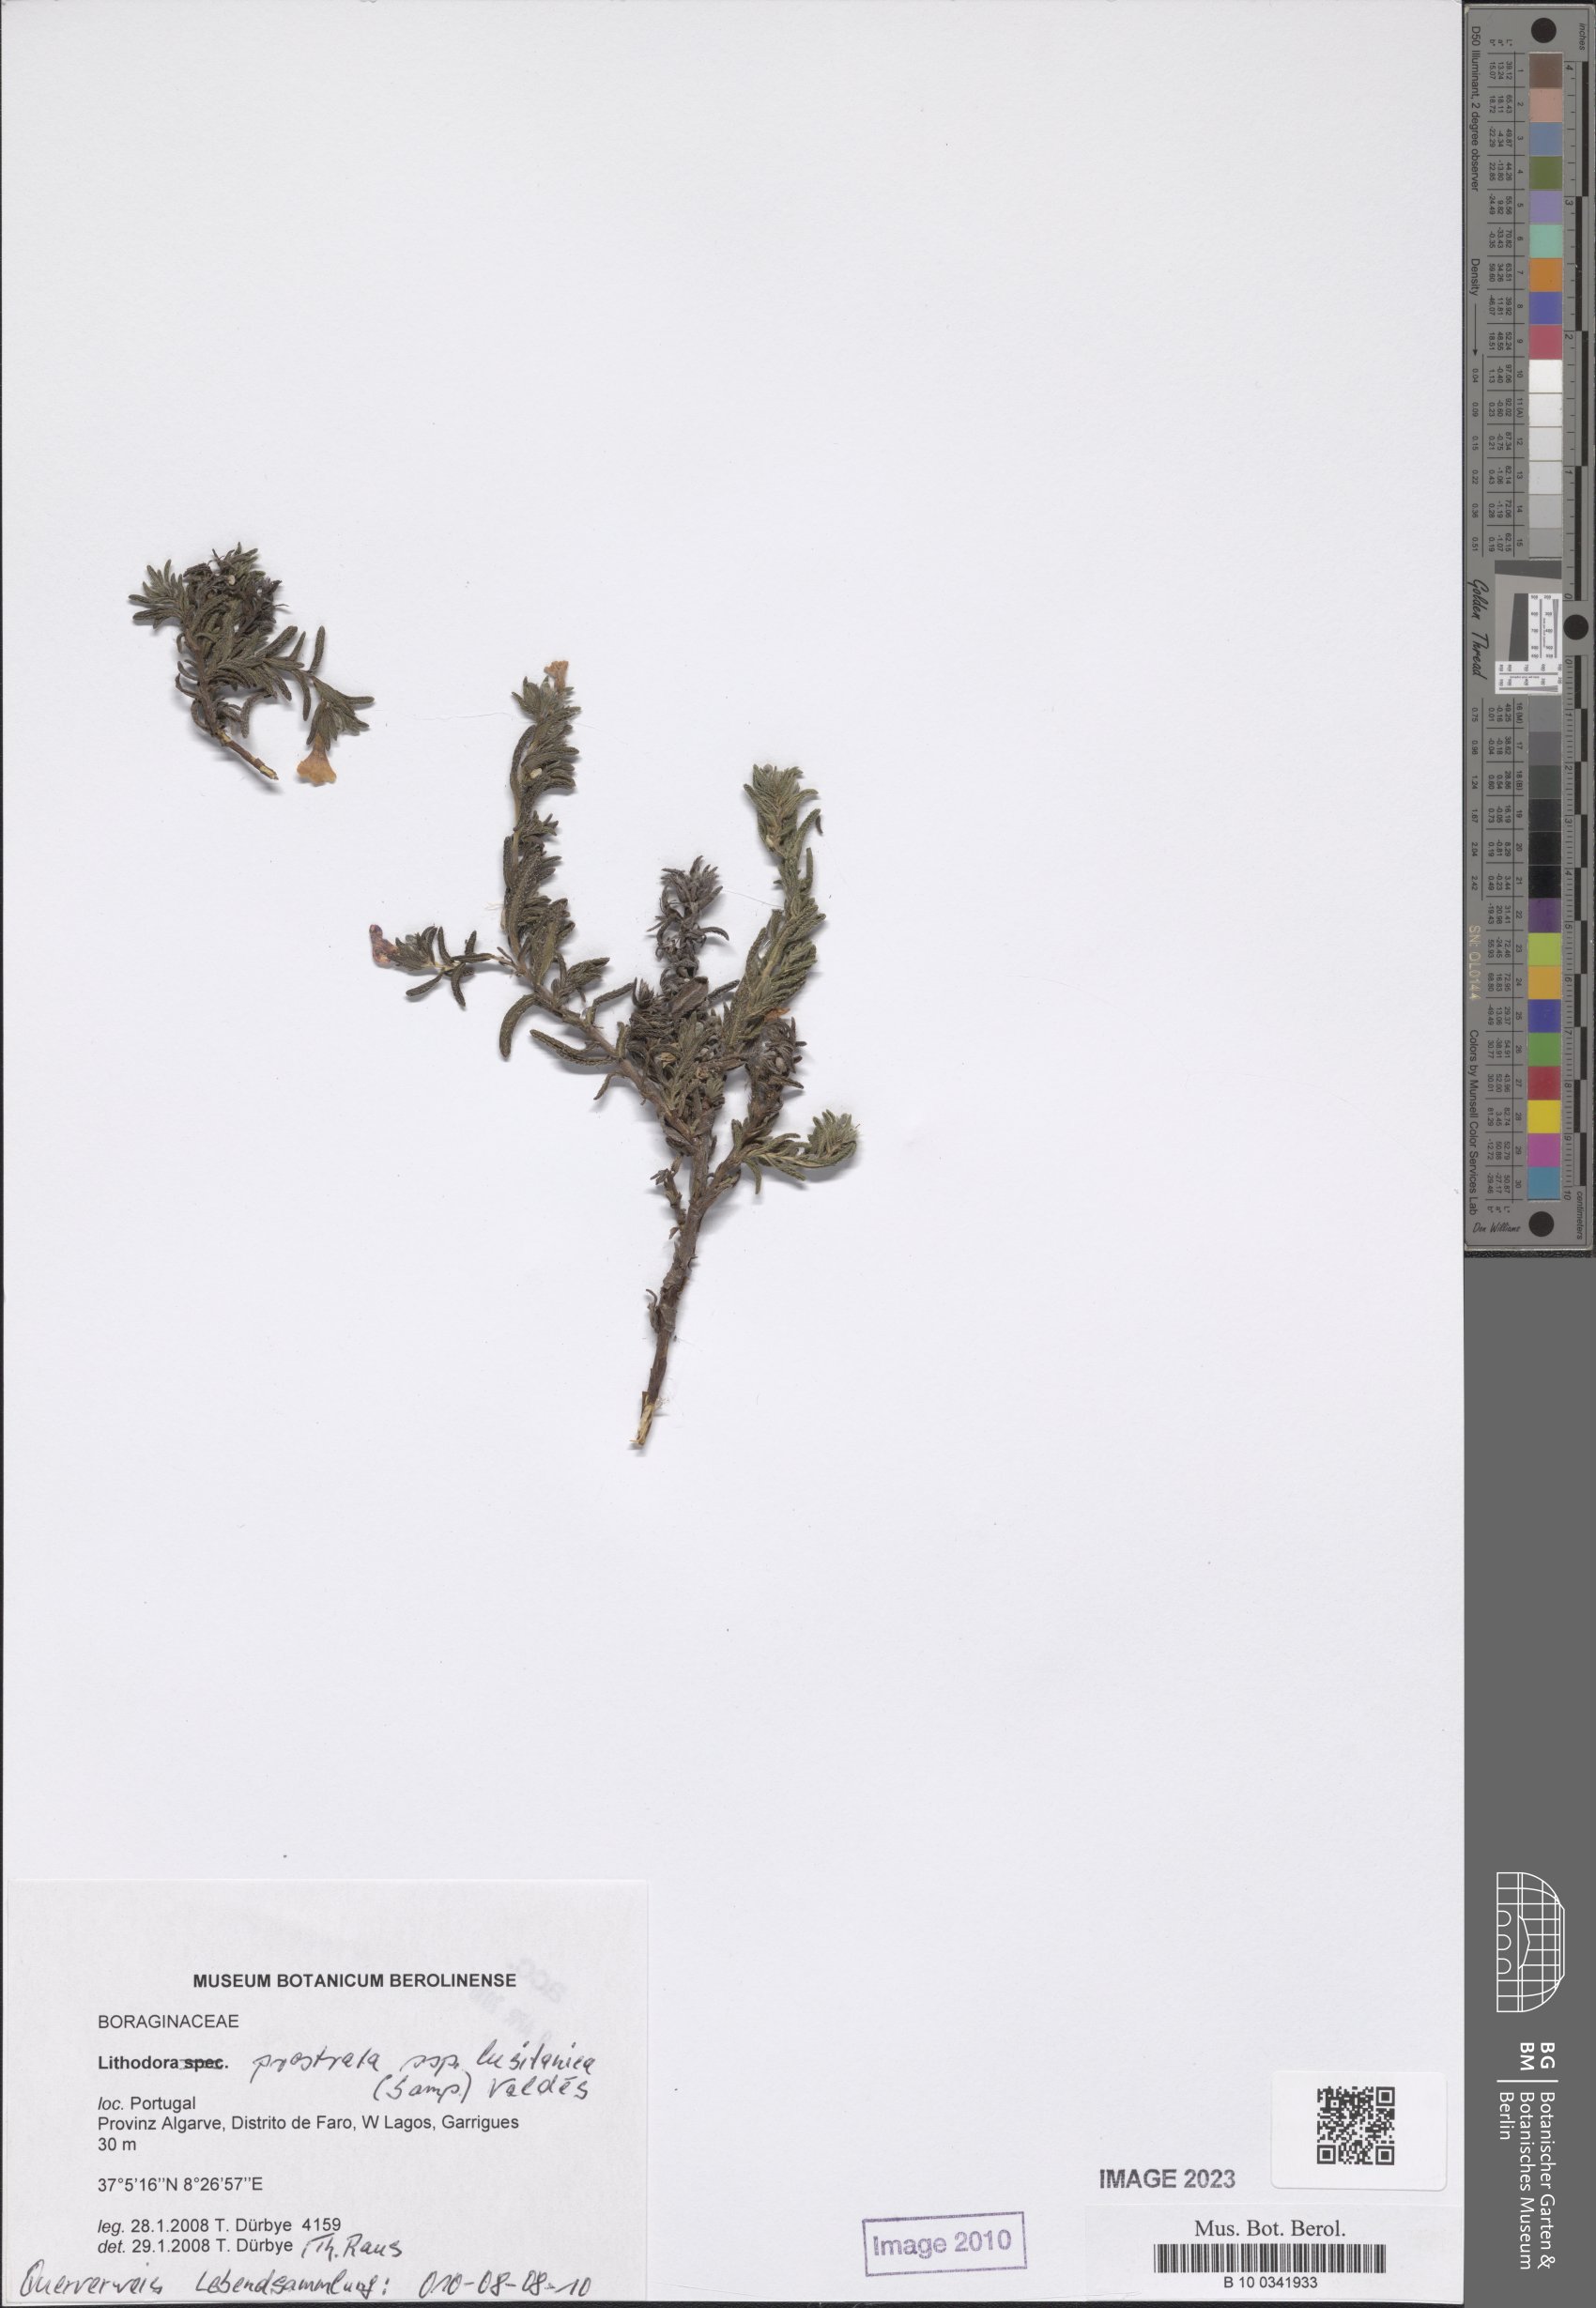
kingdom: Plantae
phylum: Tracheophyta
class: Magnoliopsida
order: Boraginales
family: Boraginaceae
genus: Lithodora
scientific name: Lithodora
